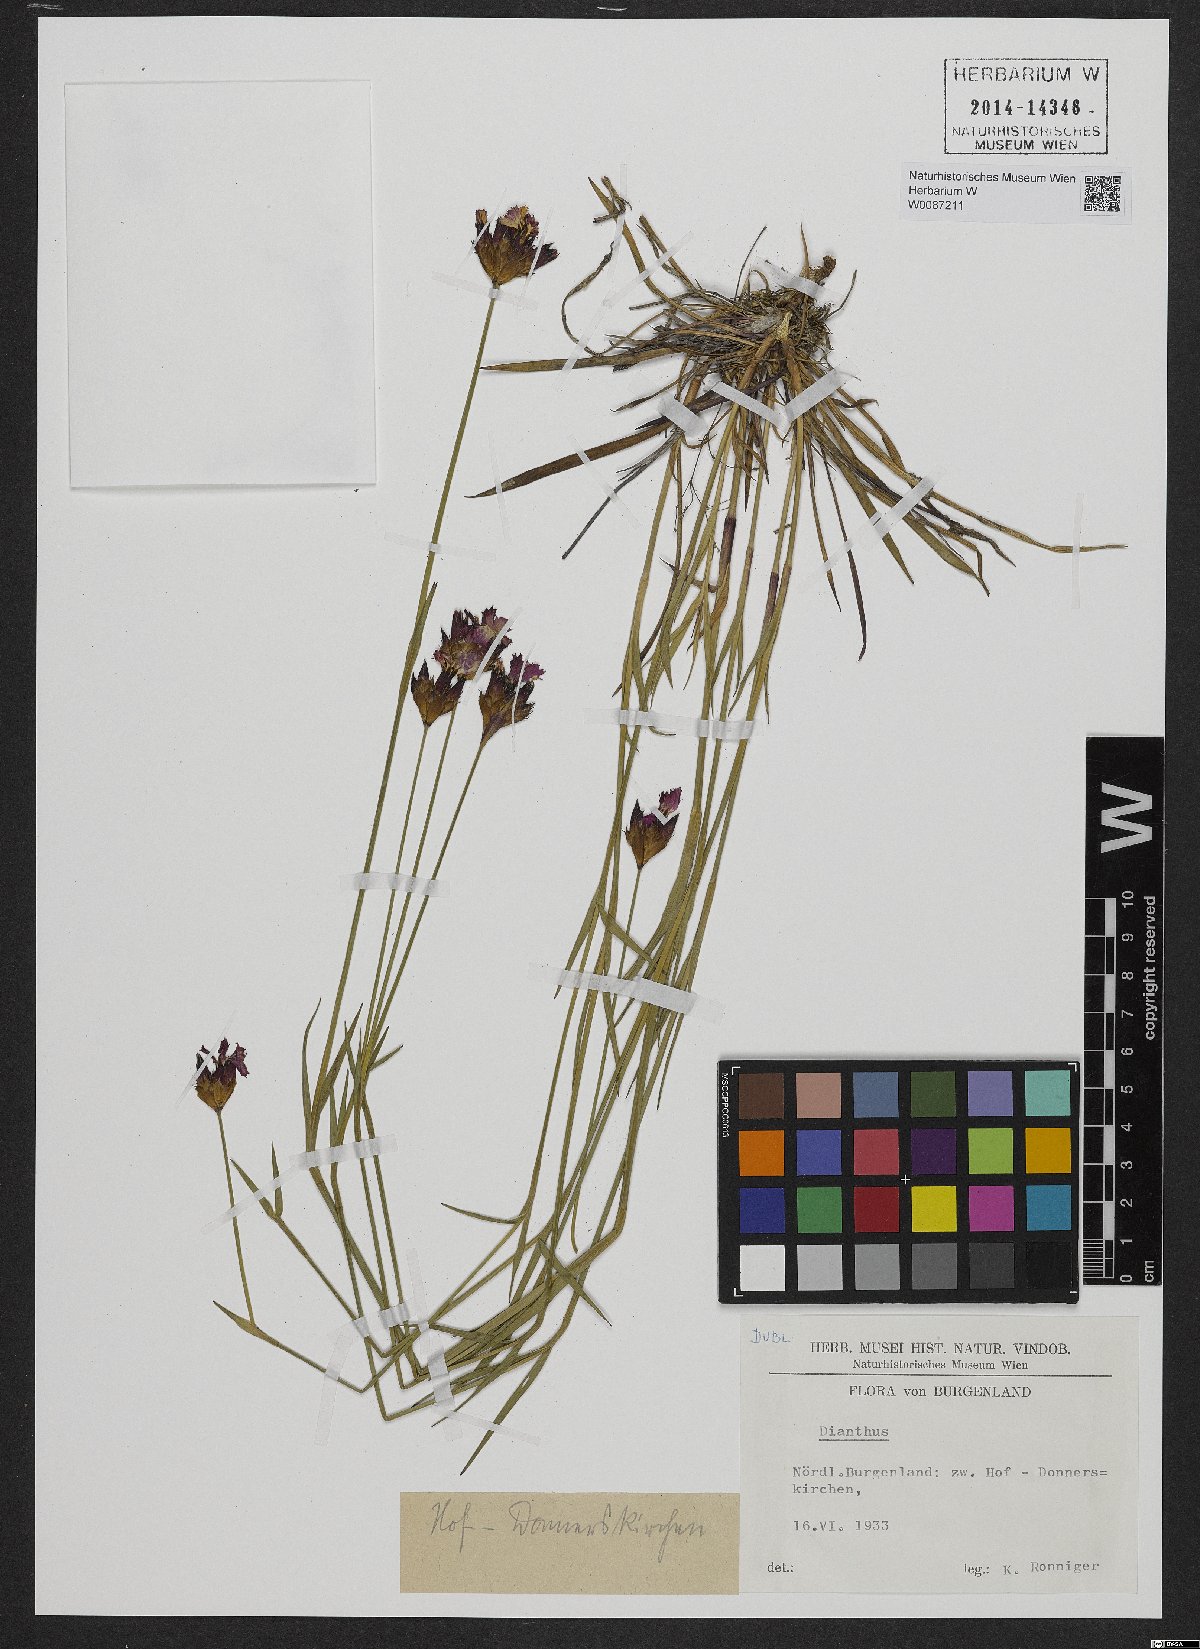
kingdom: Plantae
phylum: Tracheophyta
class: Magnoliopsida
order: Caryophyllales
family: Caryophyllaceae
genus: Dianthus
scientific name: Dianthus carthusianorum
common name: Carthusian pink
